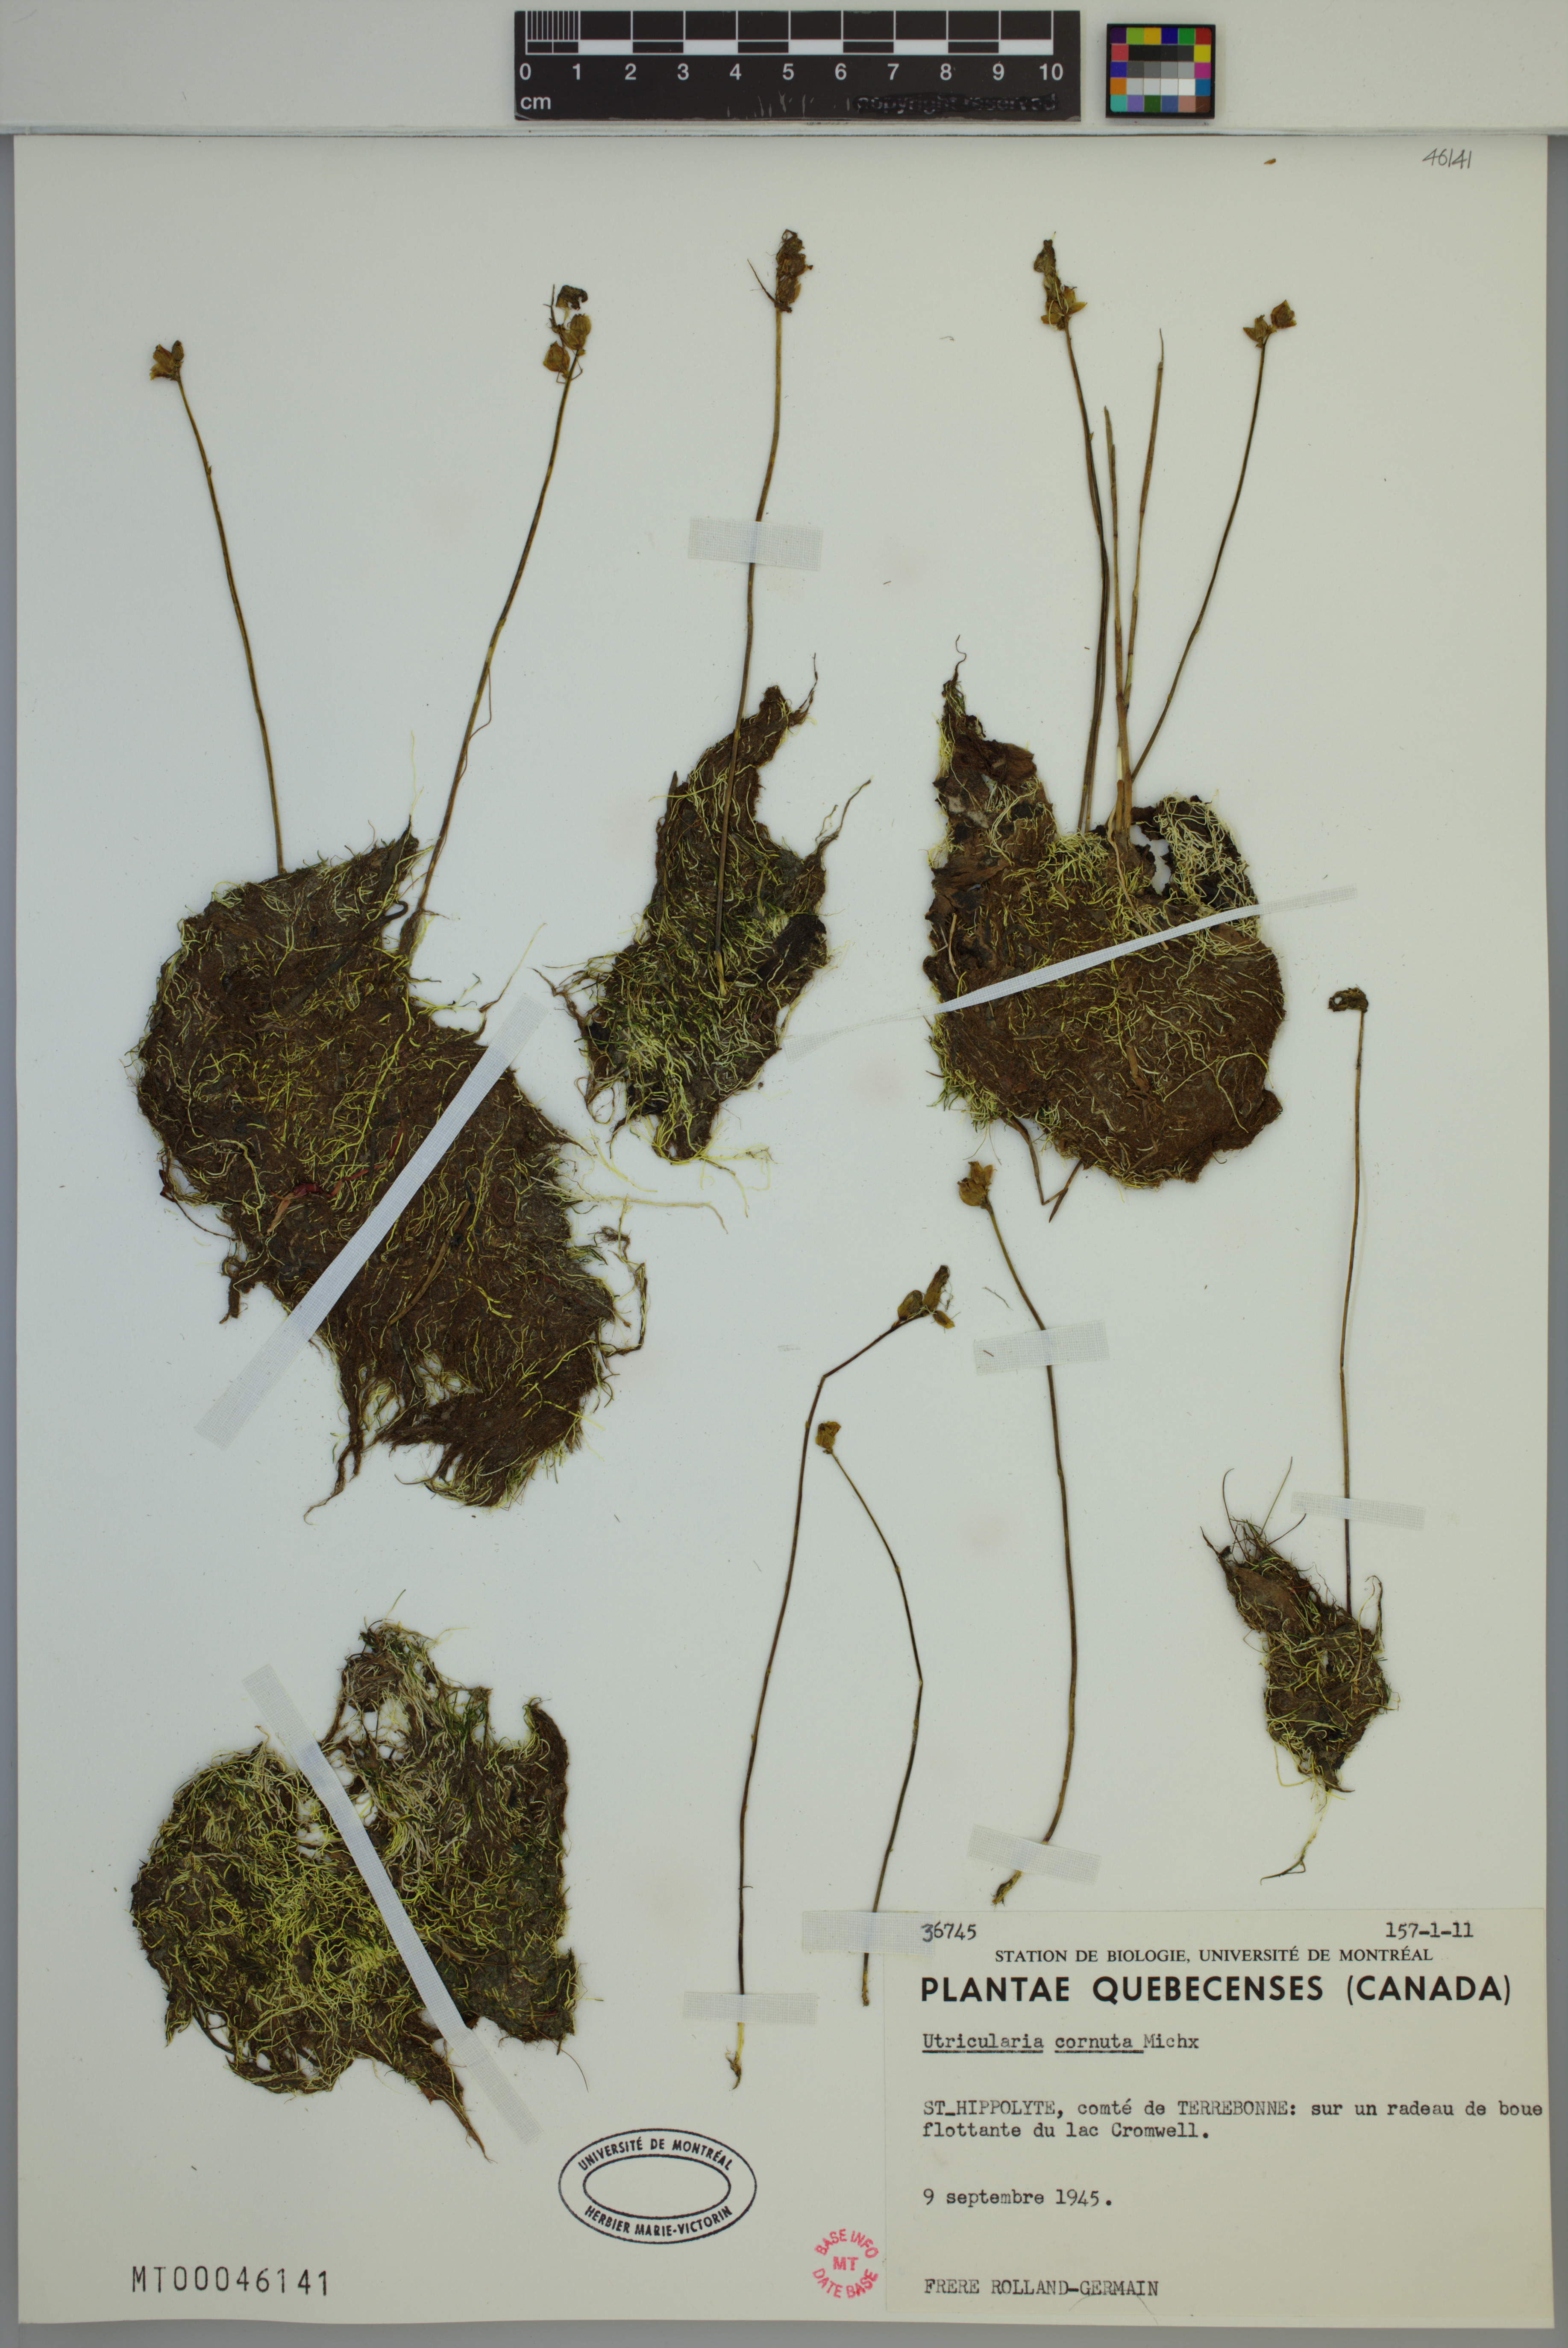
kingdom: Plantae
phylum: Tracheophyta
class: Magnoliopsida
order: Lamiales
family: Lentibulariaceae
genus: Utricularia
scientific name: Utricularia cornuta
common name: Horned bladderwort
